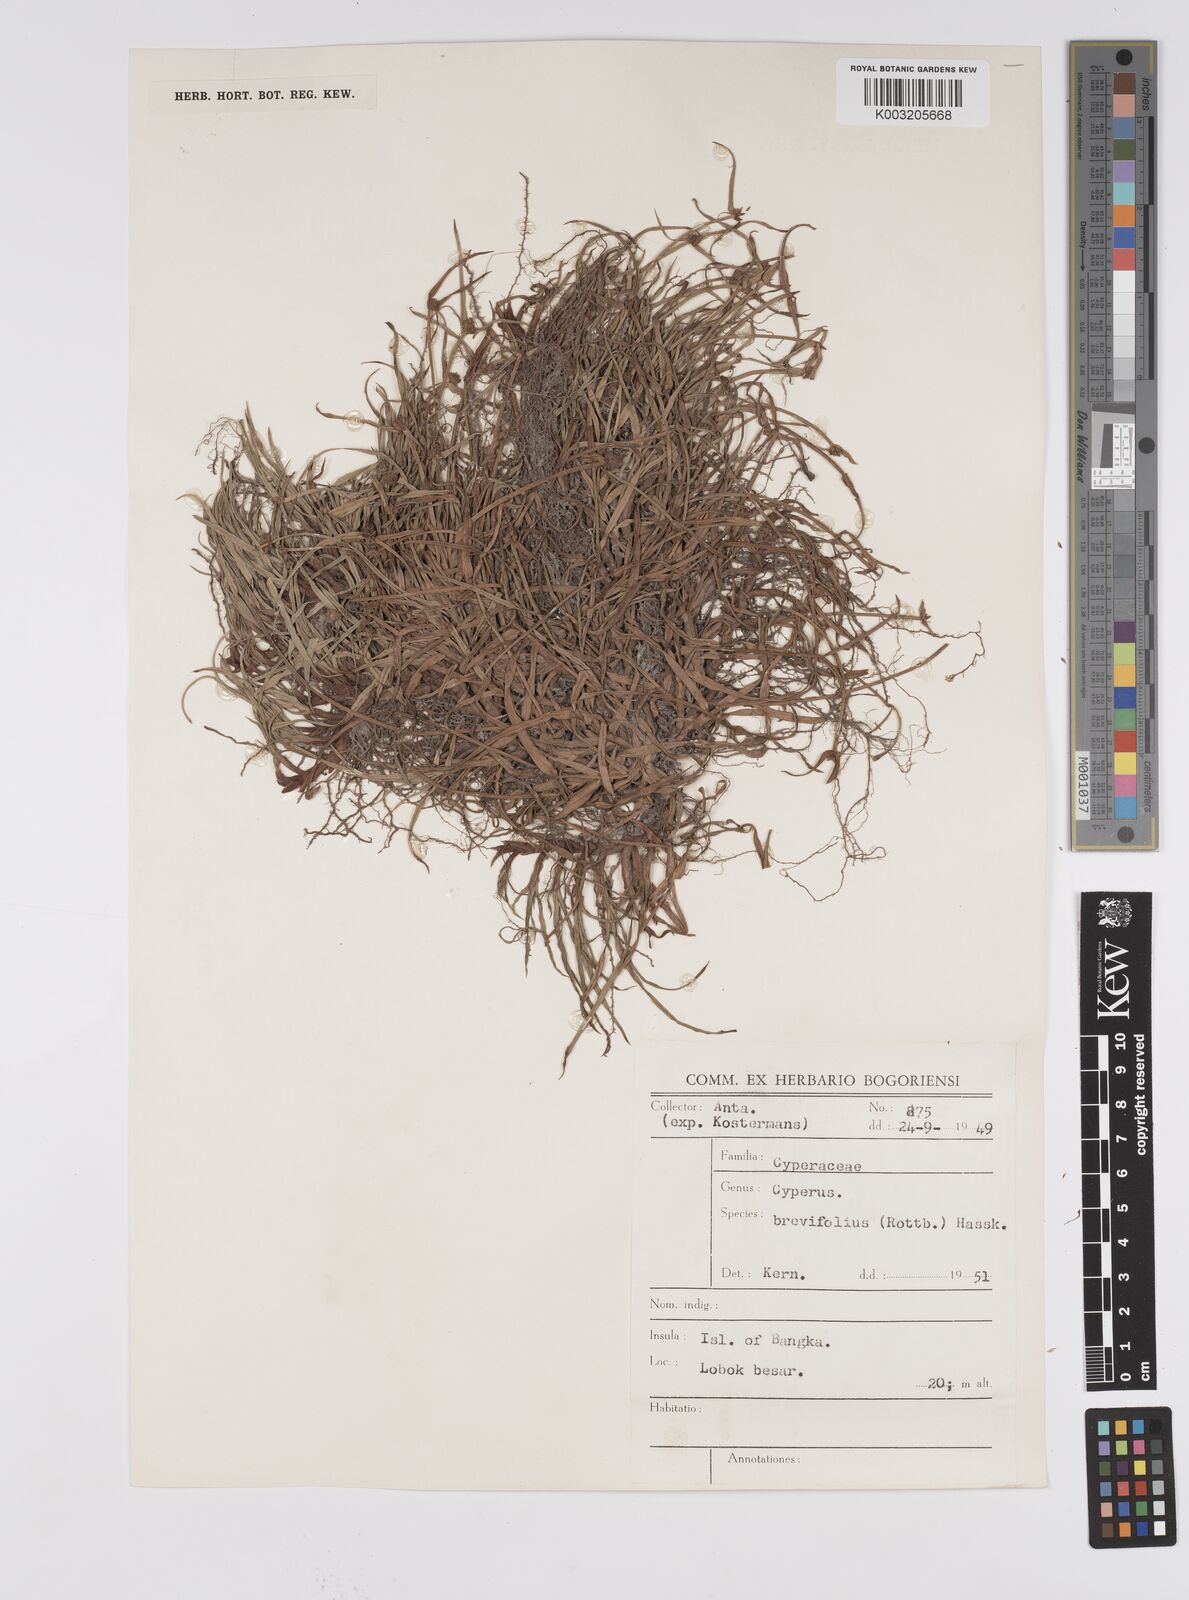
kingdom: Plantae
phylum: Tracheophyta
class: Liliopsida
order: Poales
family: Cyperaceae
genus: Cyperus
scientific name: Cyperus brevifolius
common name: Globe kyllinga
